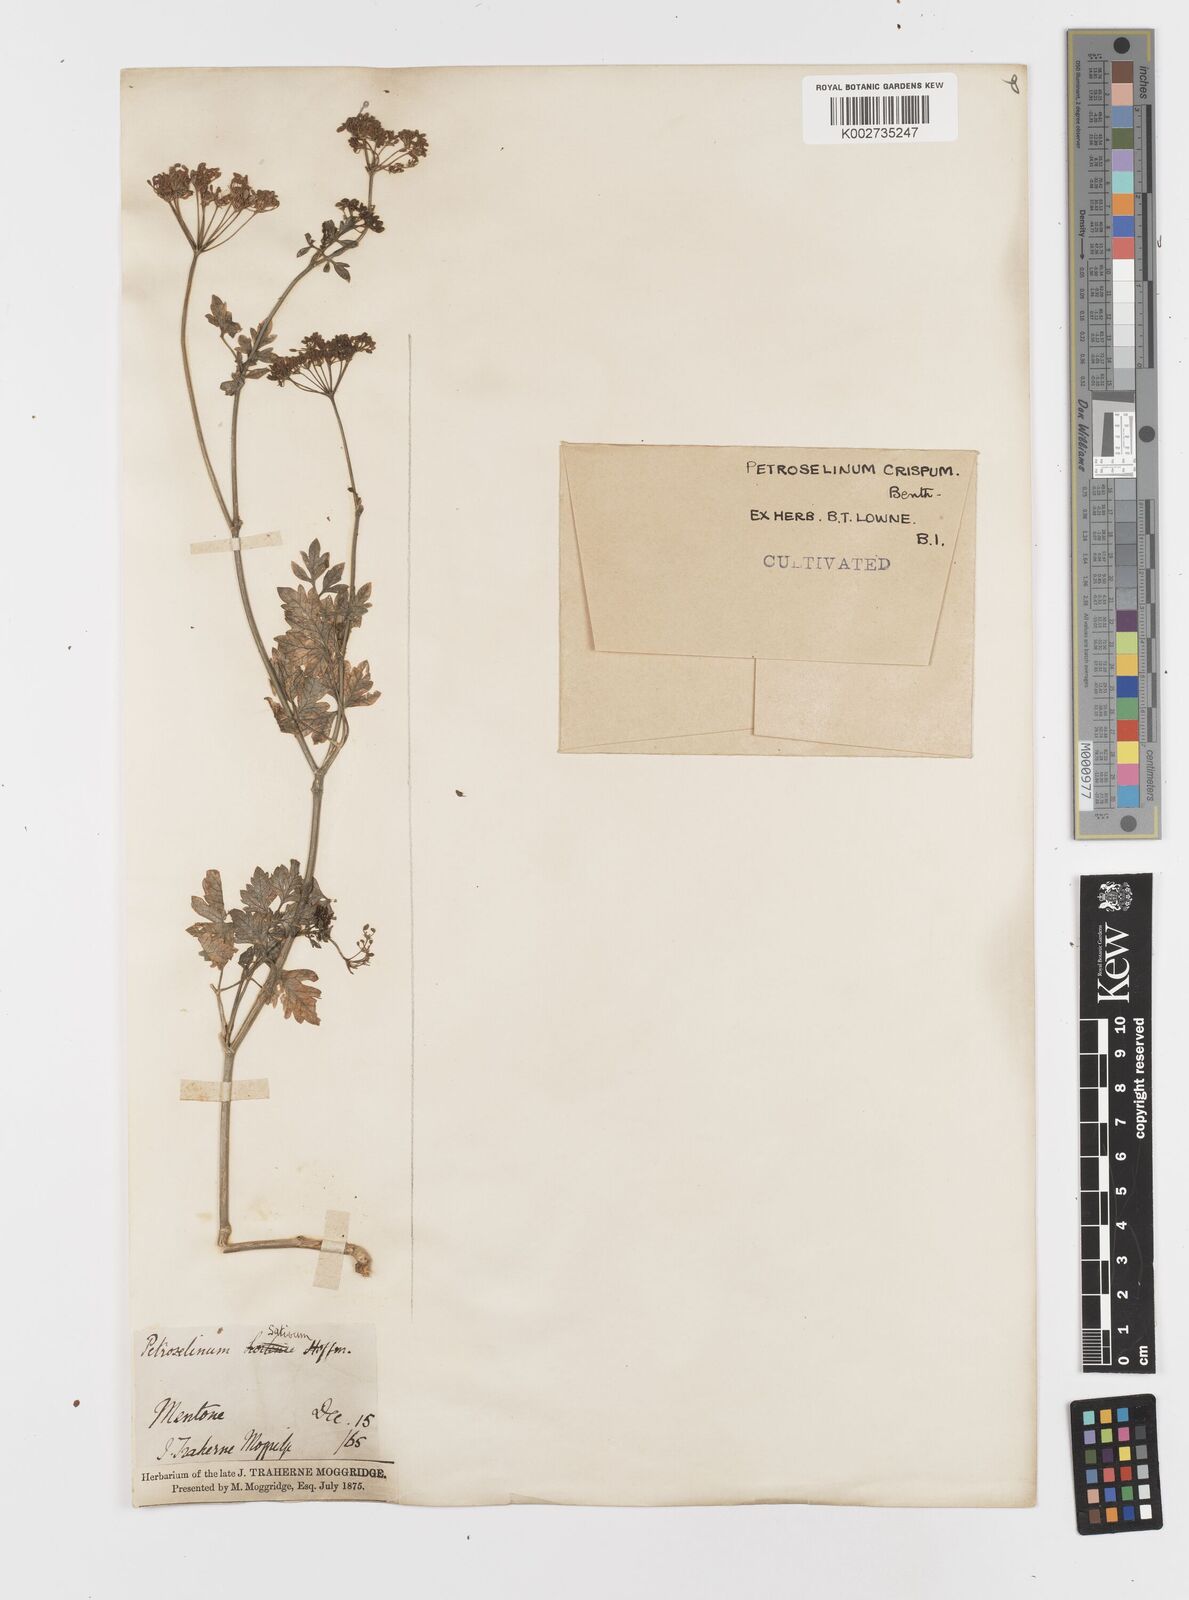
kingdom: Plantae
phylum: Tracheophyta
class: Magnoliopsida
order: Apiales
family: Apiaceae
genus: Petroselinum
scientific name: Petroselinum
